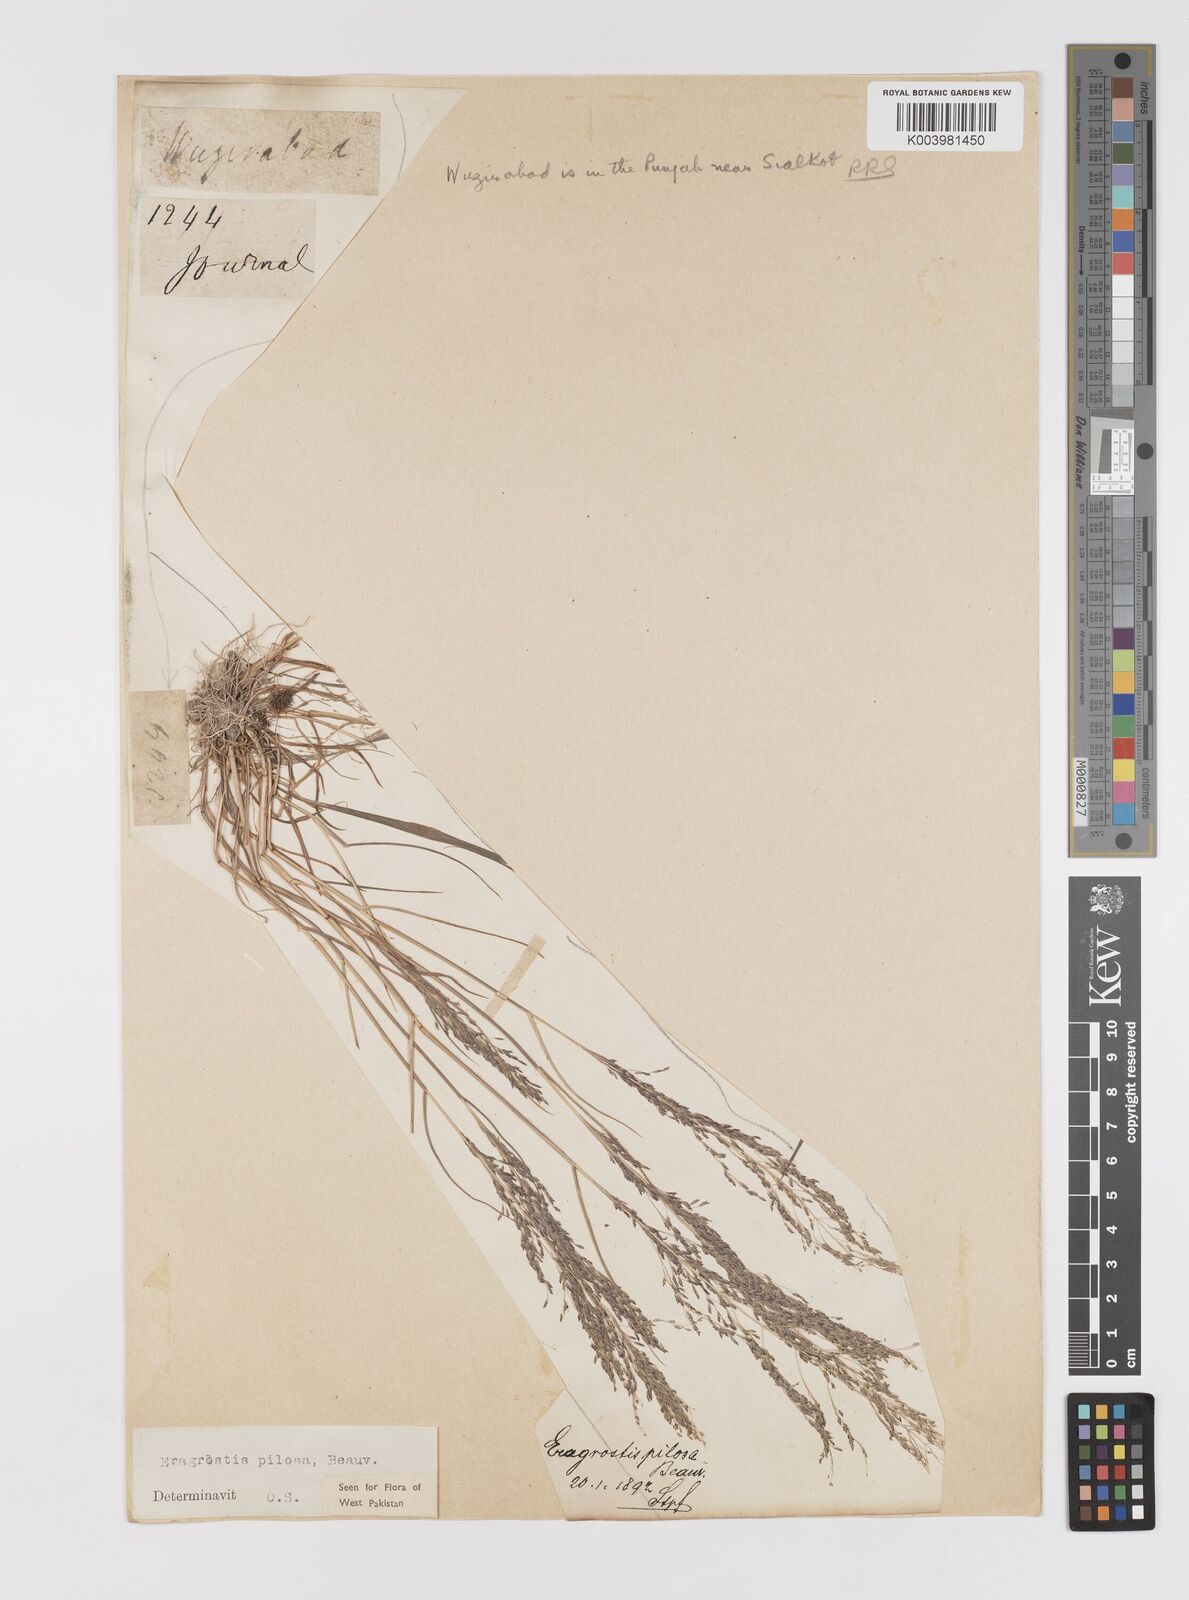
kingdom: Plantae
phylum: Tracheophyta
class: Liliopsida
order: Poales
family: Poaceae
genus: Eragrostis
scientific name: Eragrostis pilosa
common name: Indian lovegrass
